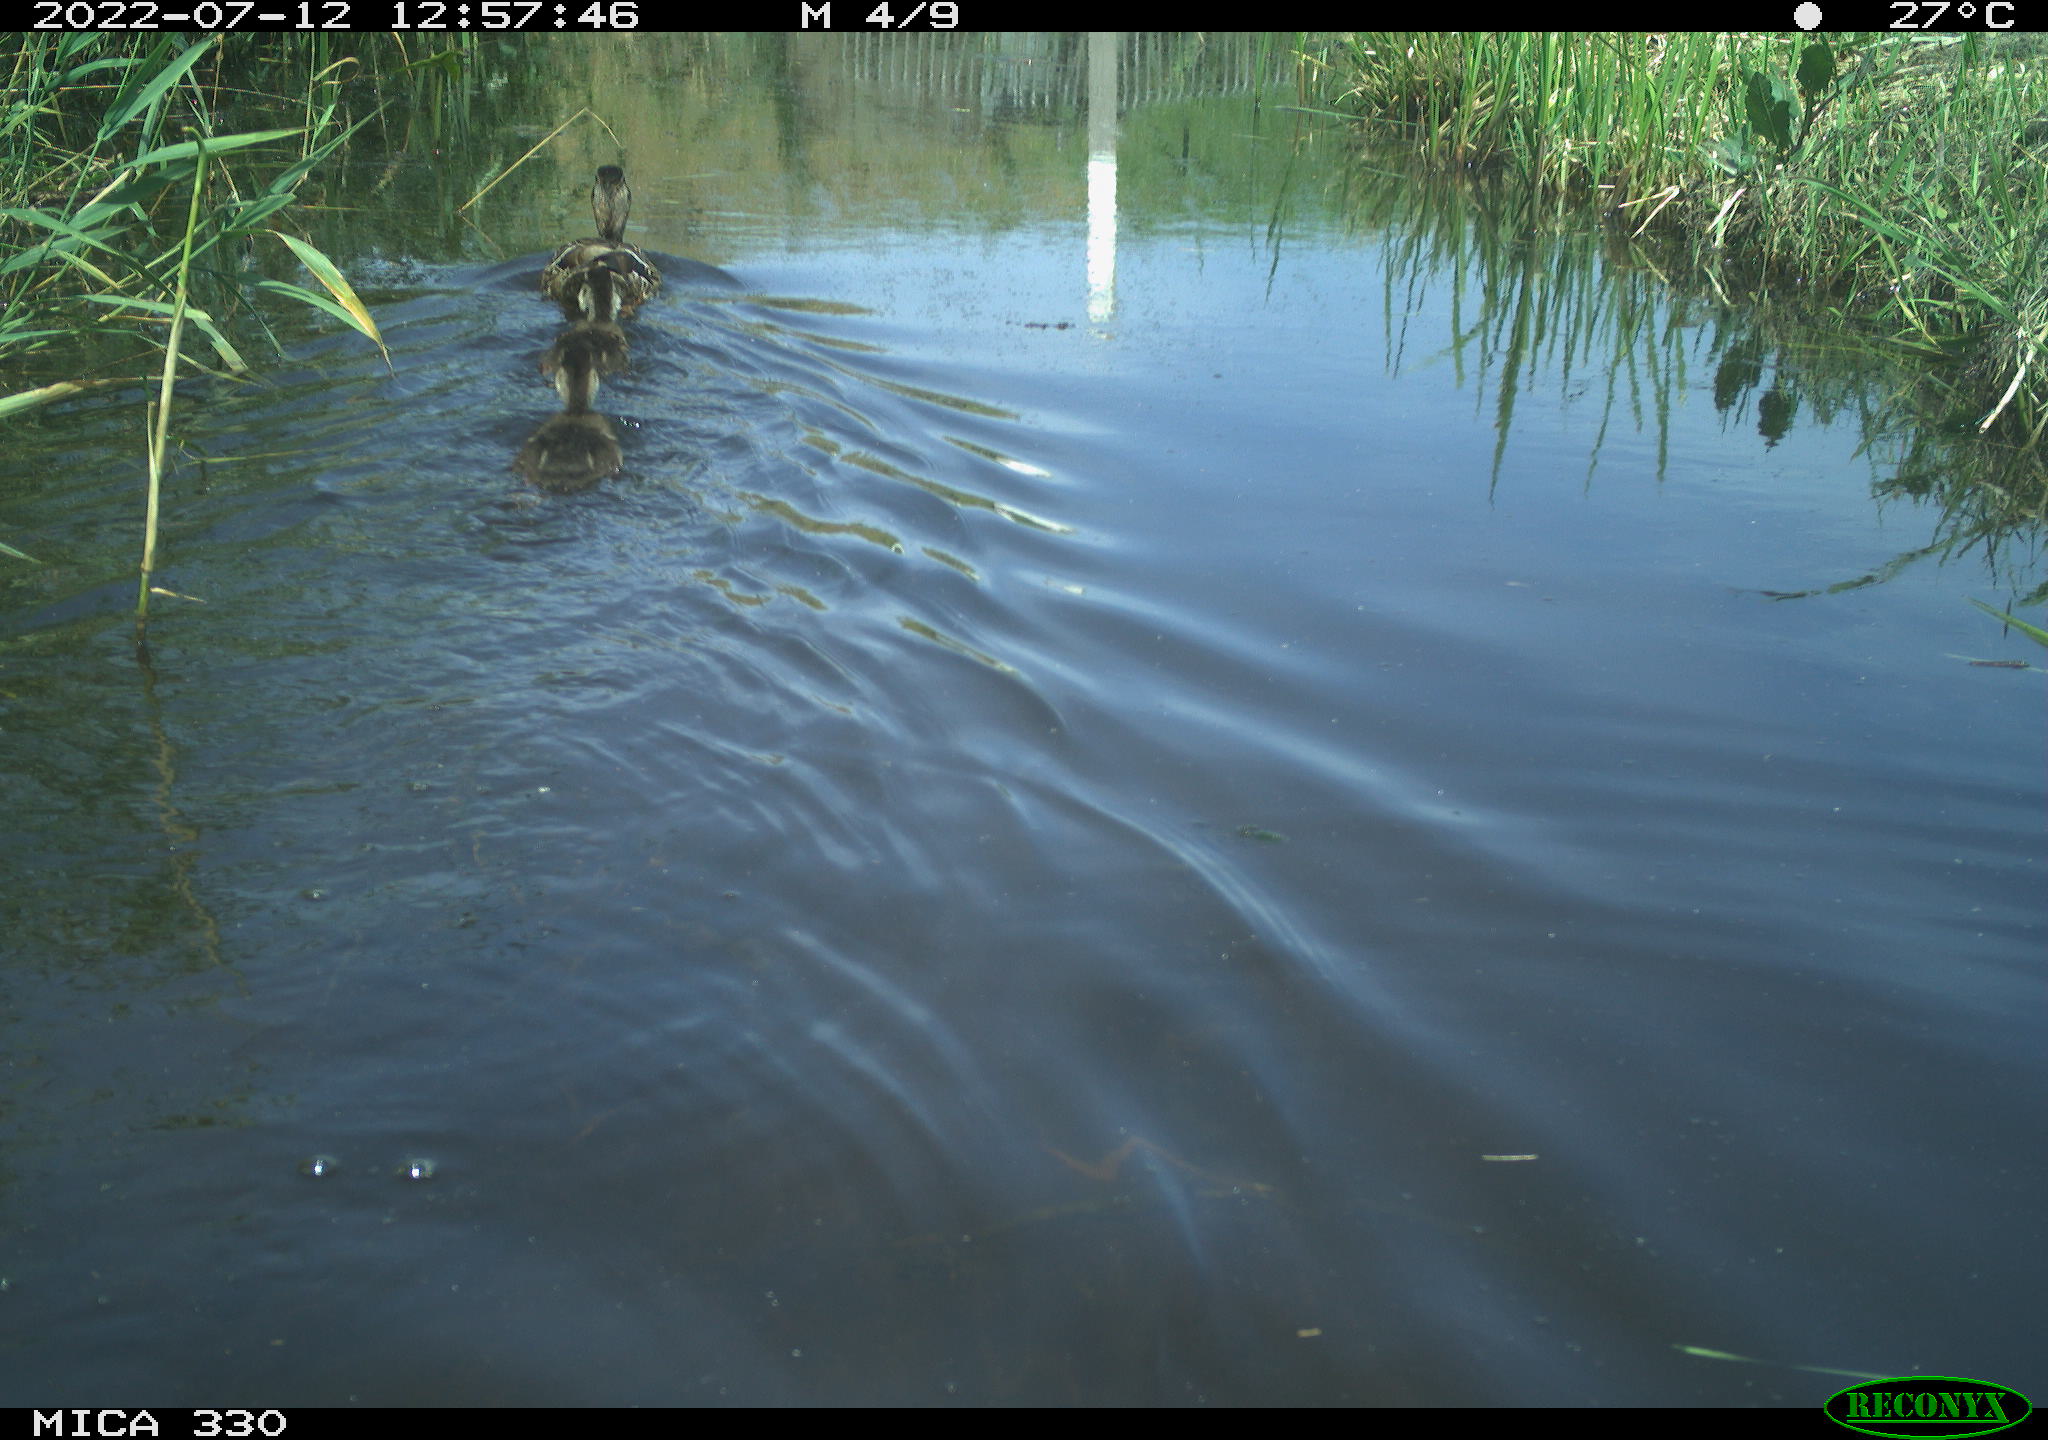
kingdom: Animalia
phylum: Chordata
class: Aves
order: Anseriformes
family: Anatidae
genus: Anas
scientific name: Anas platyrhynchos
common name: Mallard
